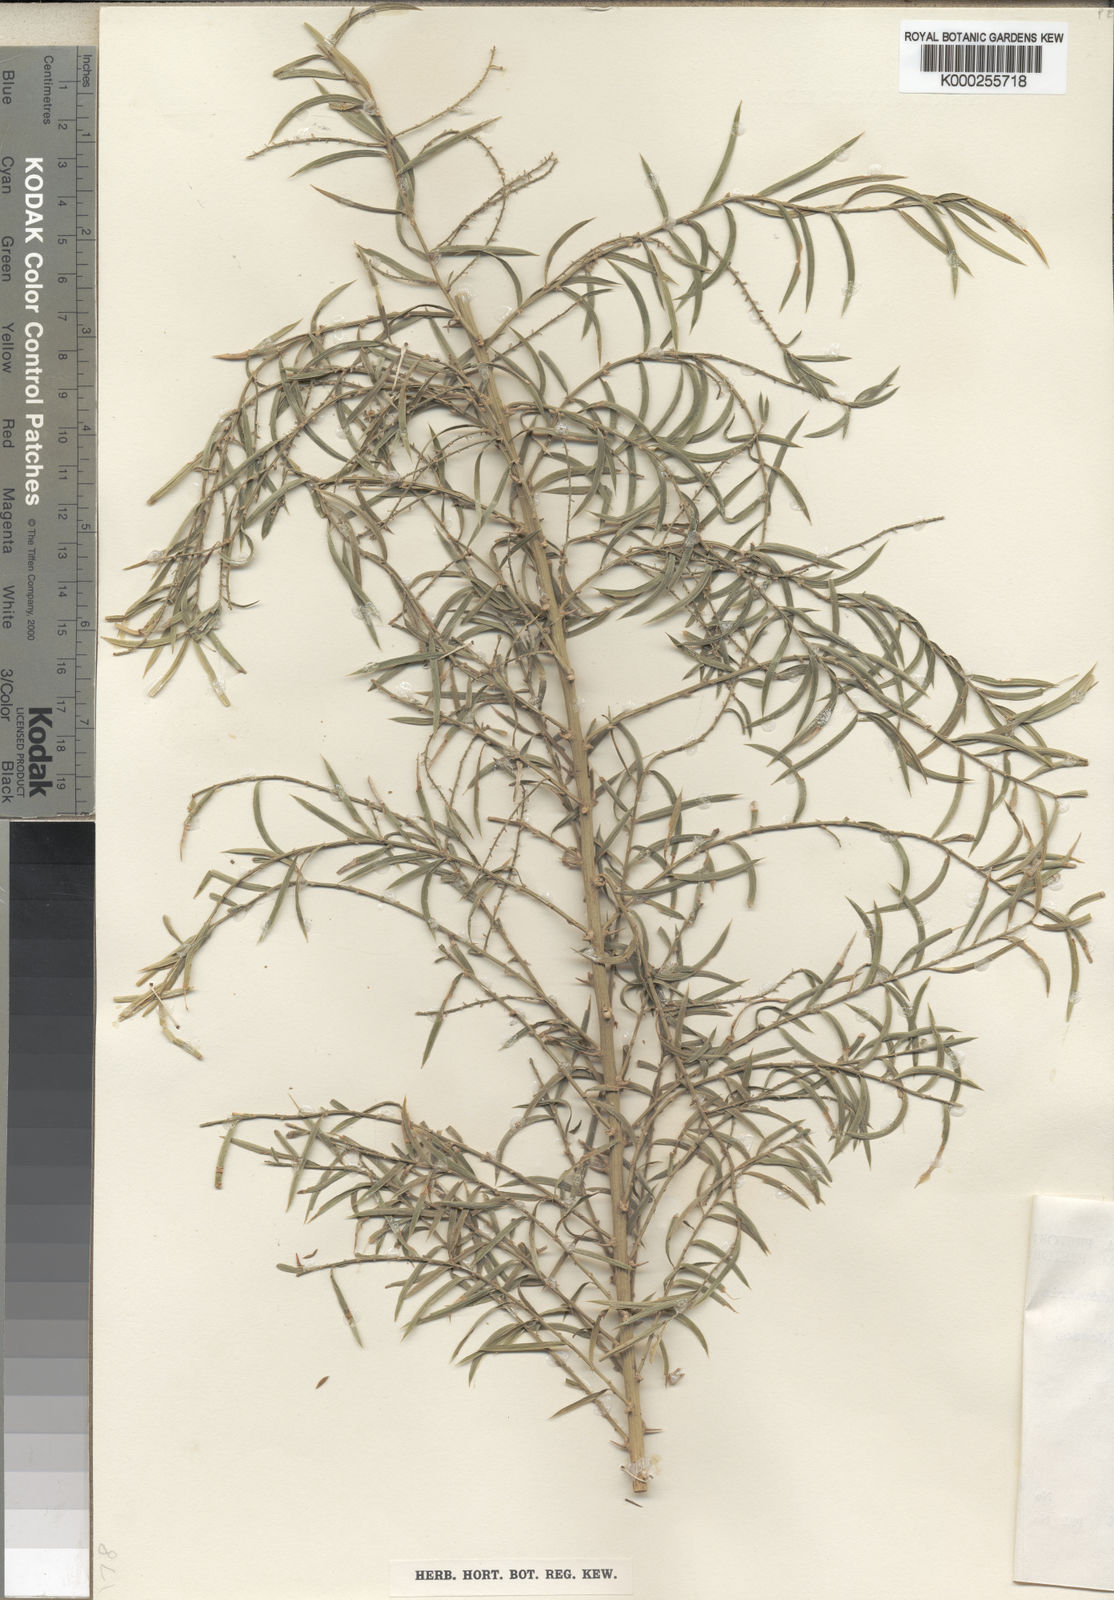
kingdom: Plantae
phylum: Tracheophyta
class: Liliopsida
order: Asparagales
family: Asparagaceae
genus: Asparagus
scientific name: Asparagus densiflorus
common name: Asparagus fern
